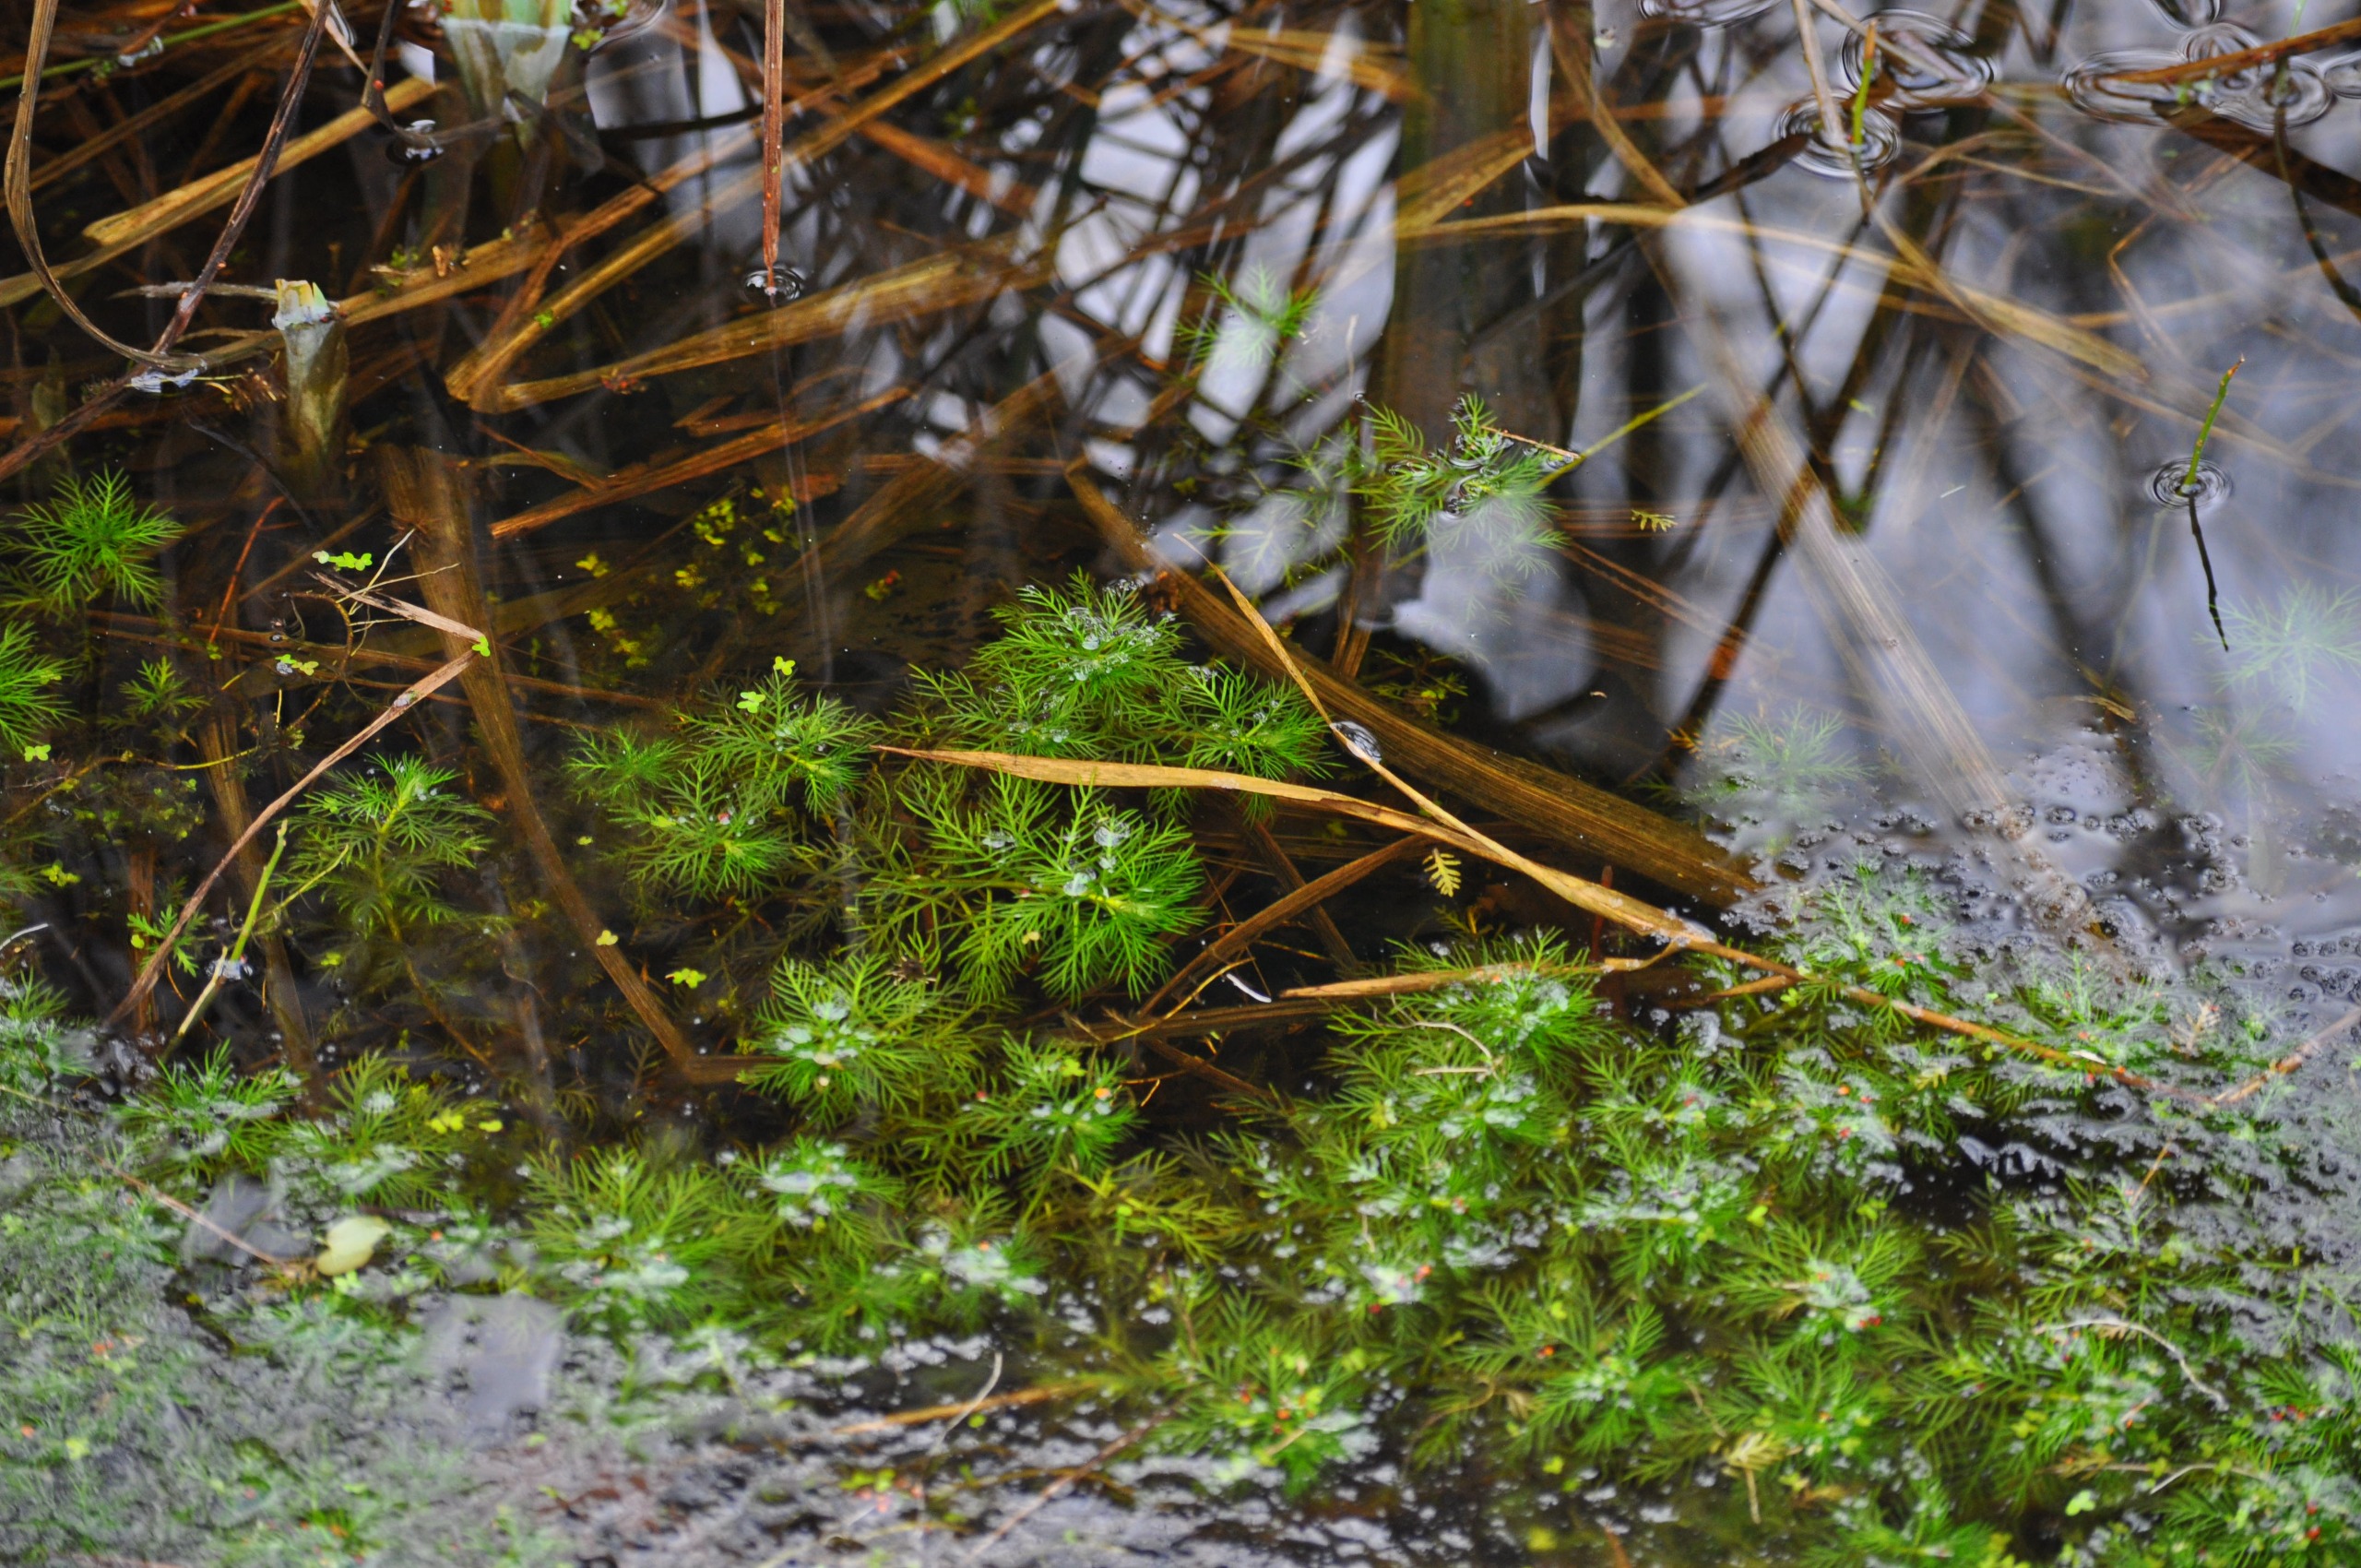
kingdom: Plantae
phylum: Tracheophyta
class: Magnoliopsida
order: Ericales
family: Primulaceae
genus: Hottonia
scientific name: Hottonia palustris
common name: Vandrøllike
